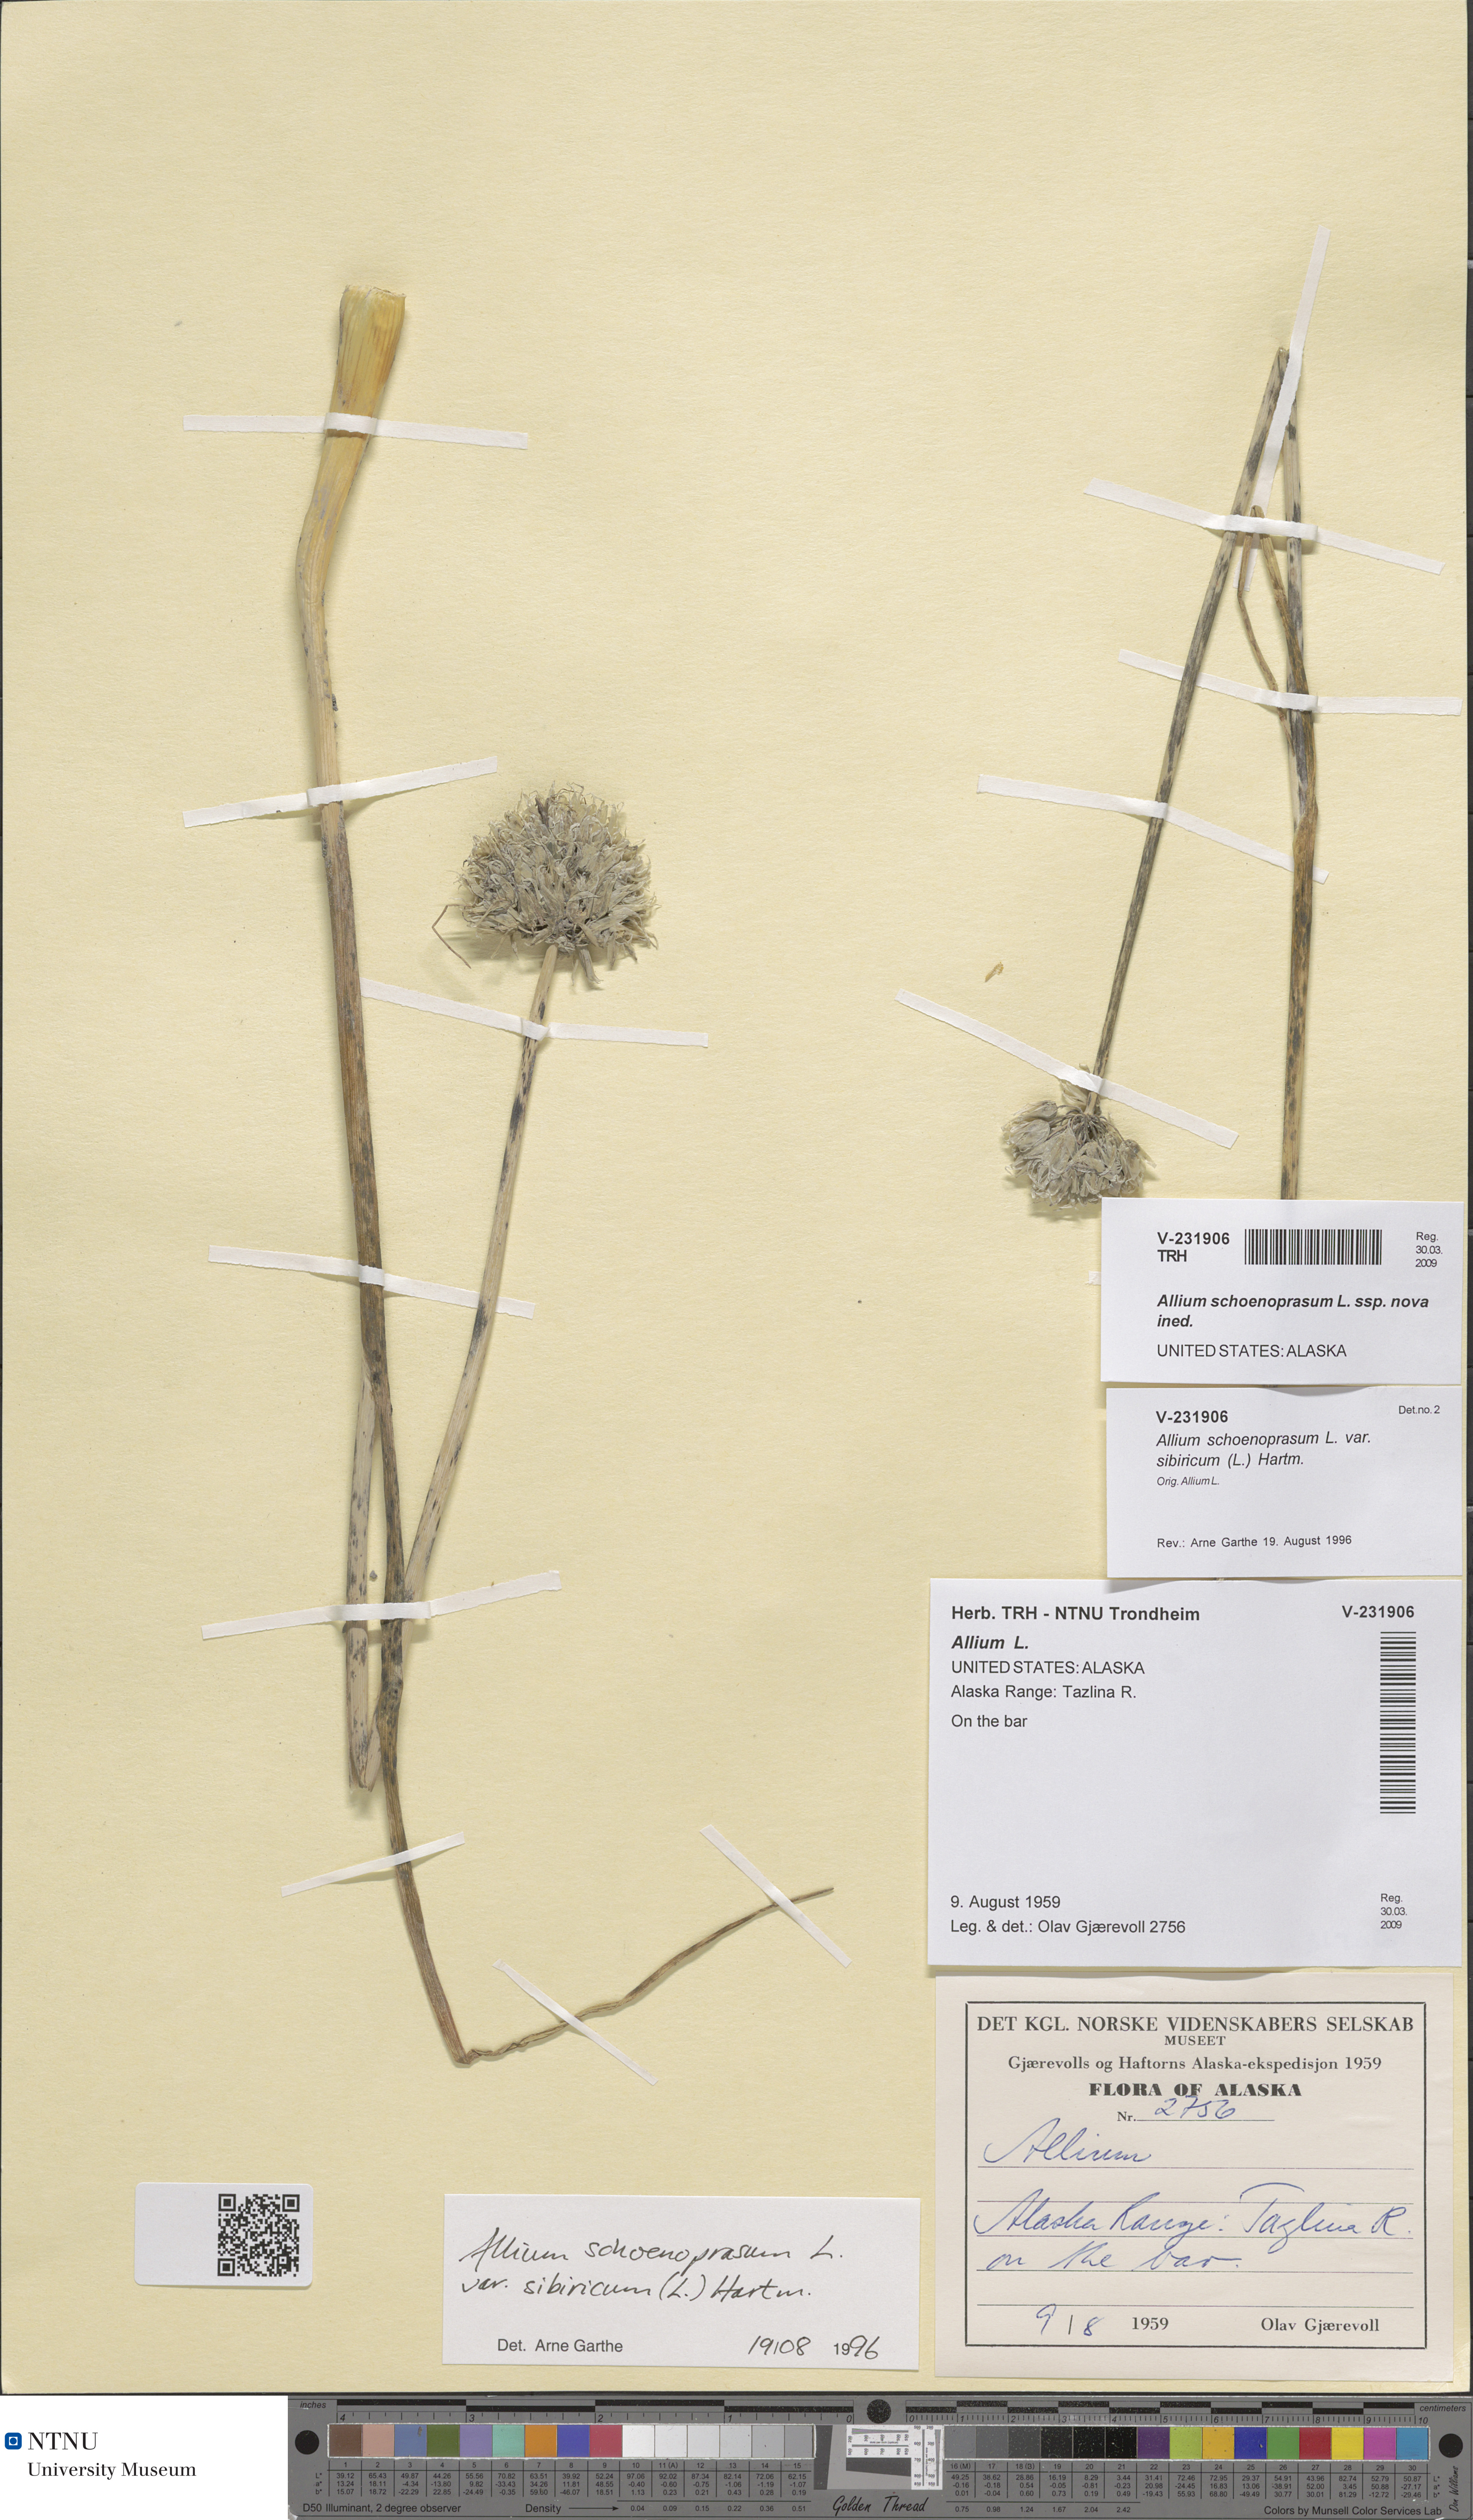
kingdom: Plantae
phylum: Tracheophyta
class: Liliopsida
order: Asparagales
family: Amaryllidaceae
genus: Allium
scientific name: Allium schoenoprasum
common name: Chives
